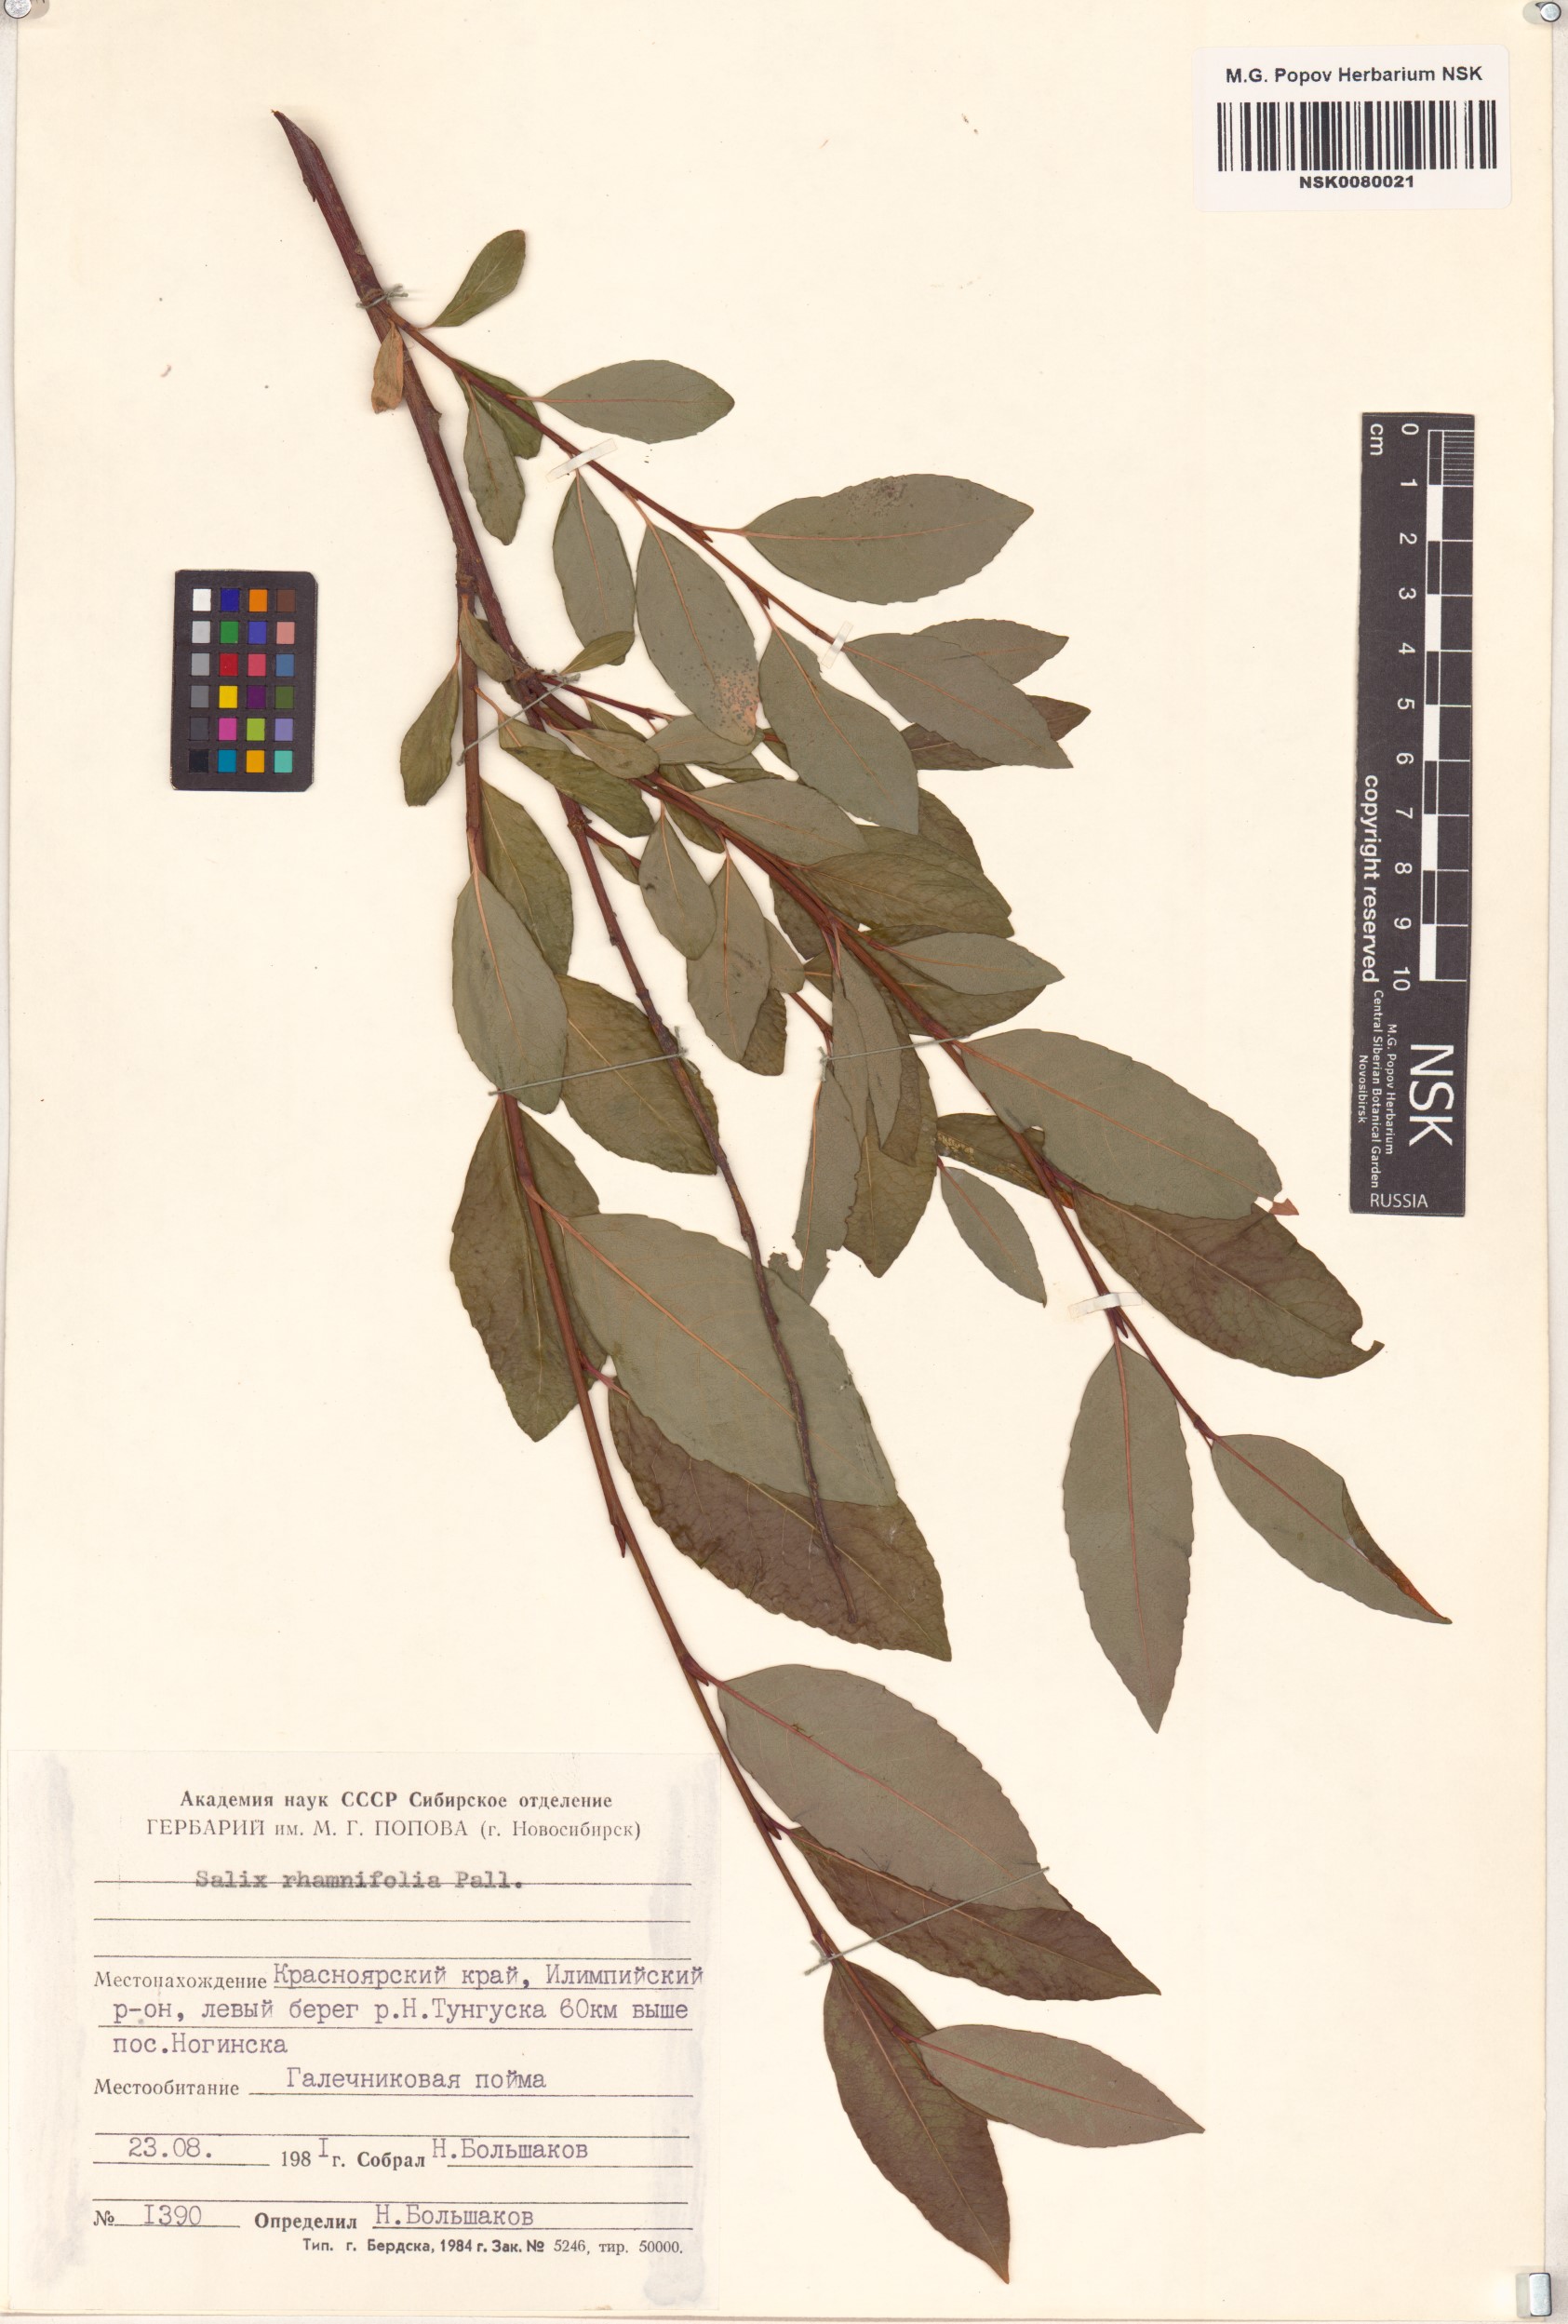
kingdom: Plantae
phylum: Tracheophyta
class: Magnoliopsida
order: Malpighiales
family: Salicaceae
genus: Salix
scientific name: Salix rhamnifolia
